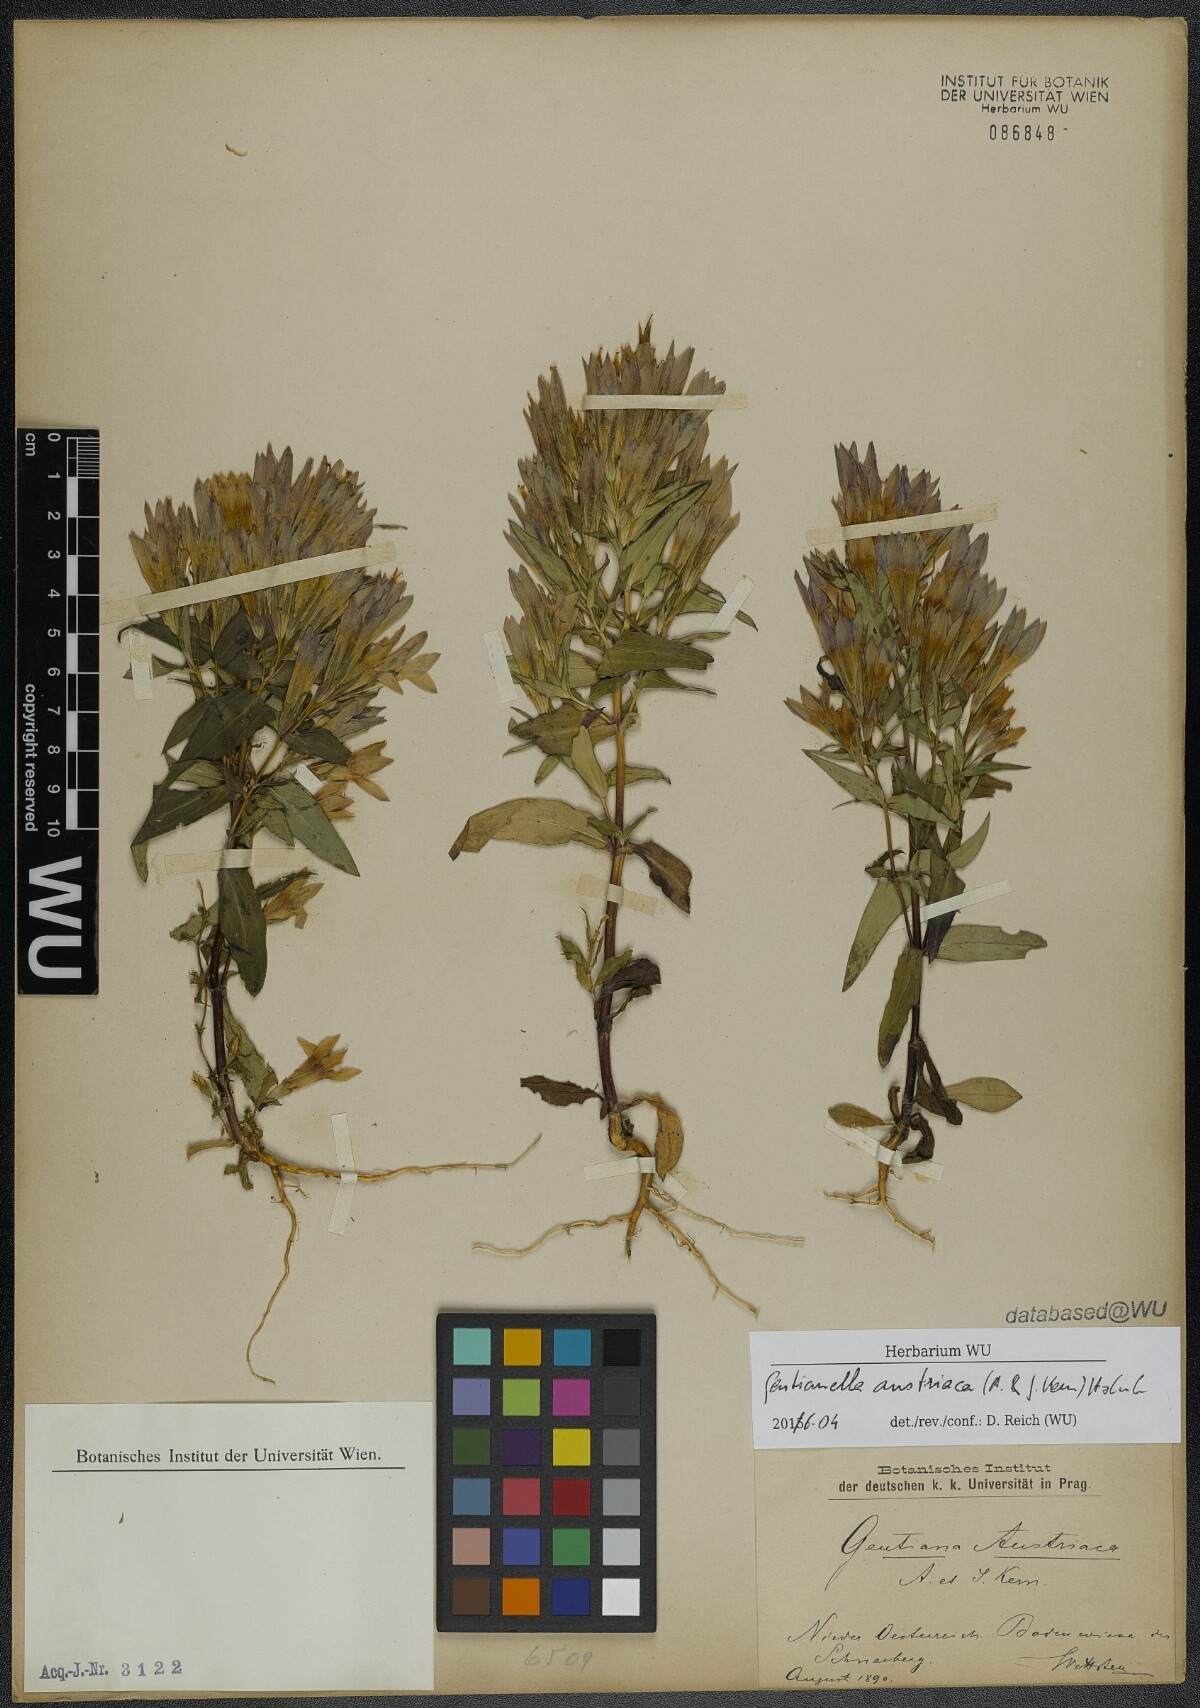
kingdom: Plantae
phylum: Tracheophyta
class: Magnoliopsida
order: Gentianales
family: Gentianaceae
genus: Gentianella
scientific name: Gentianella austriaca
